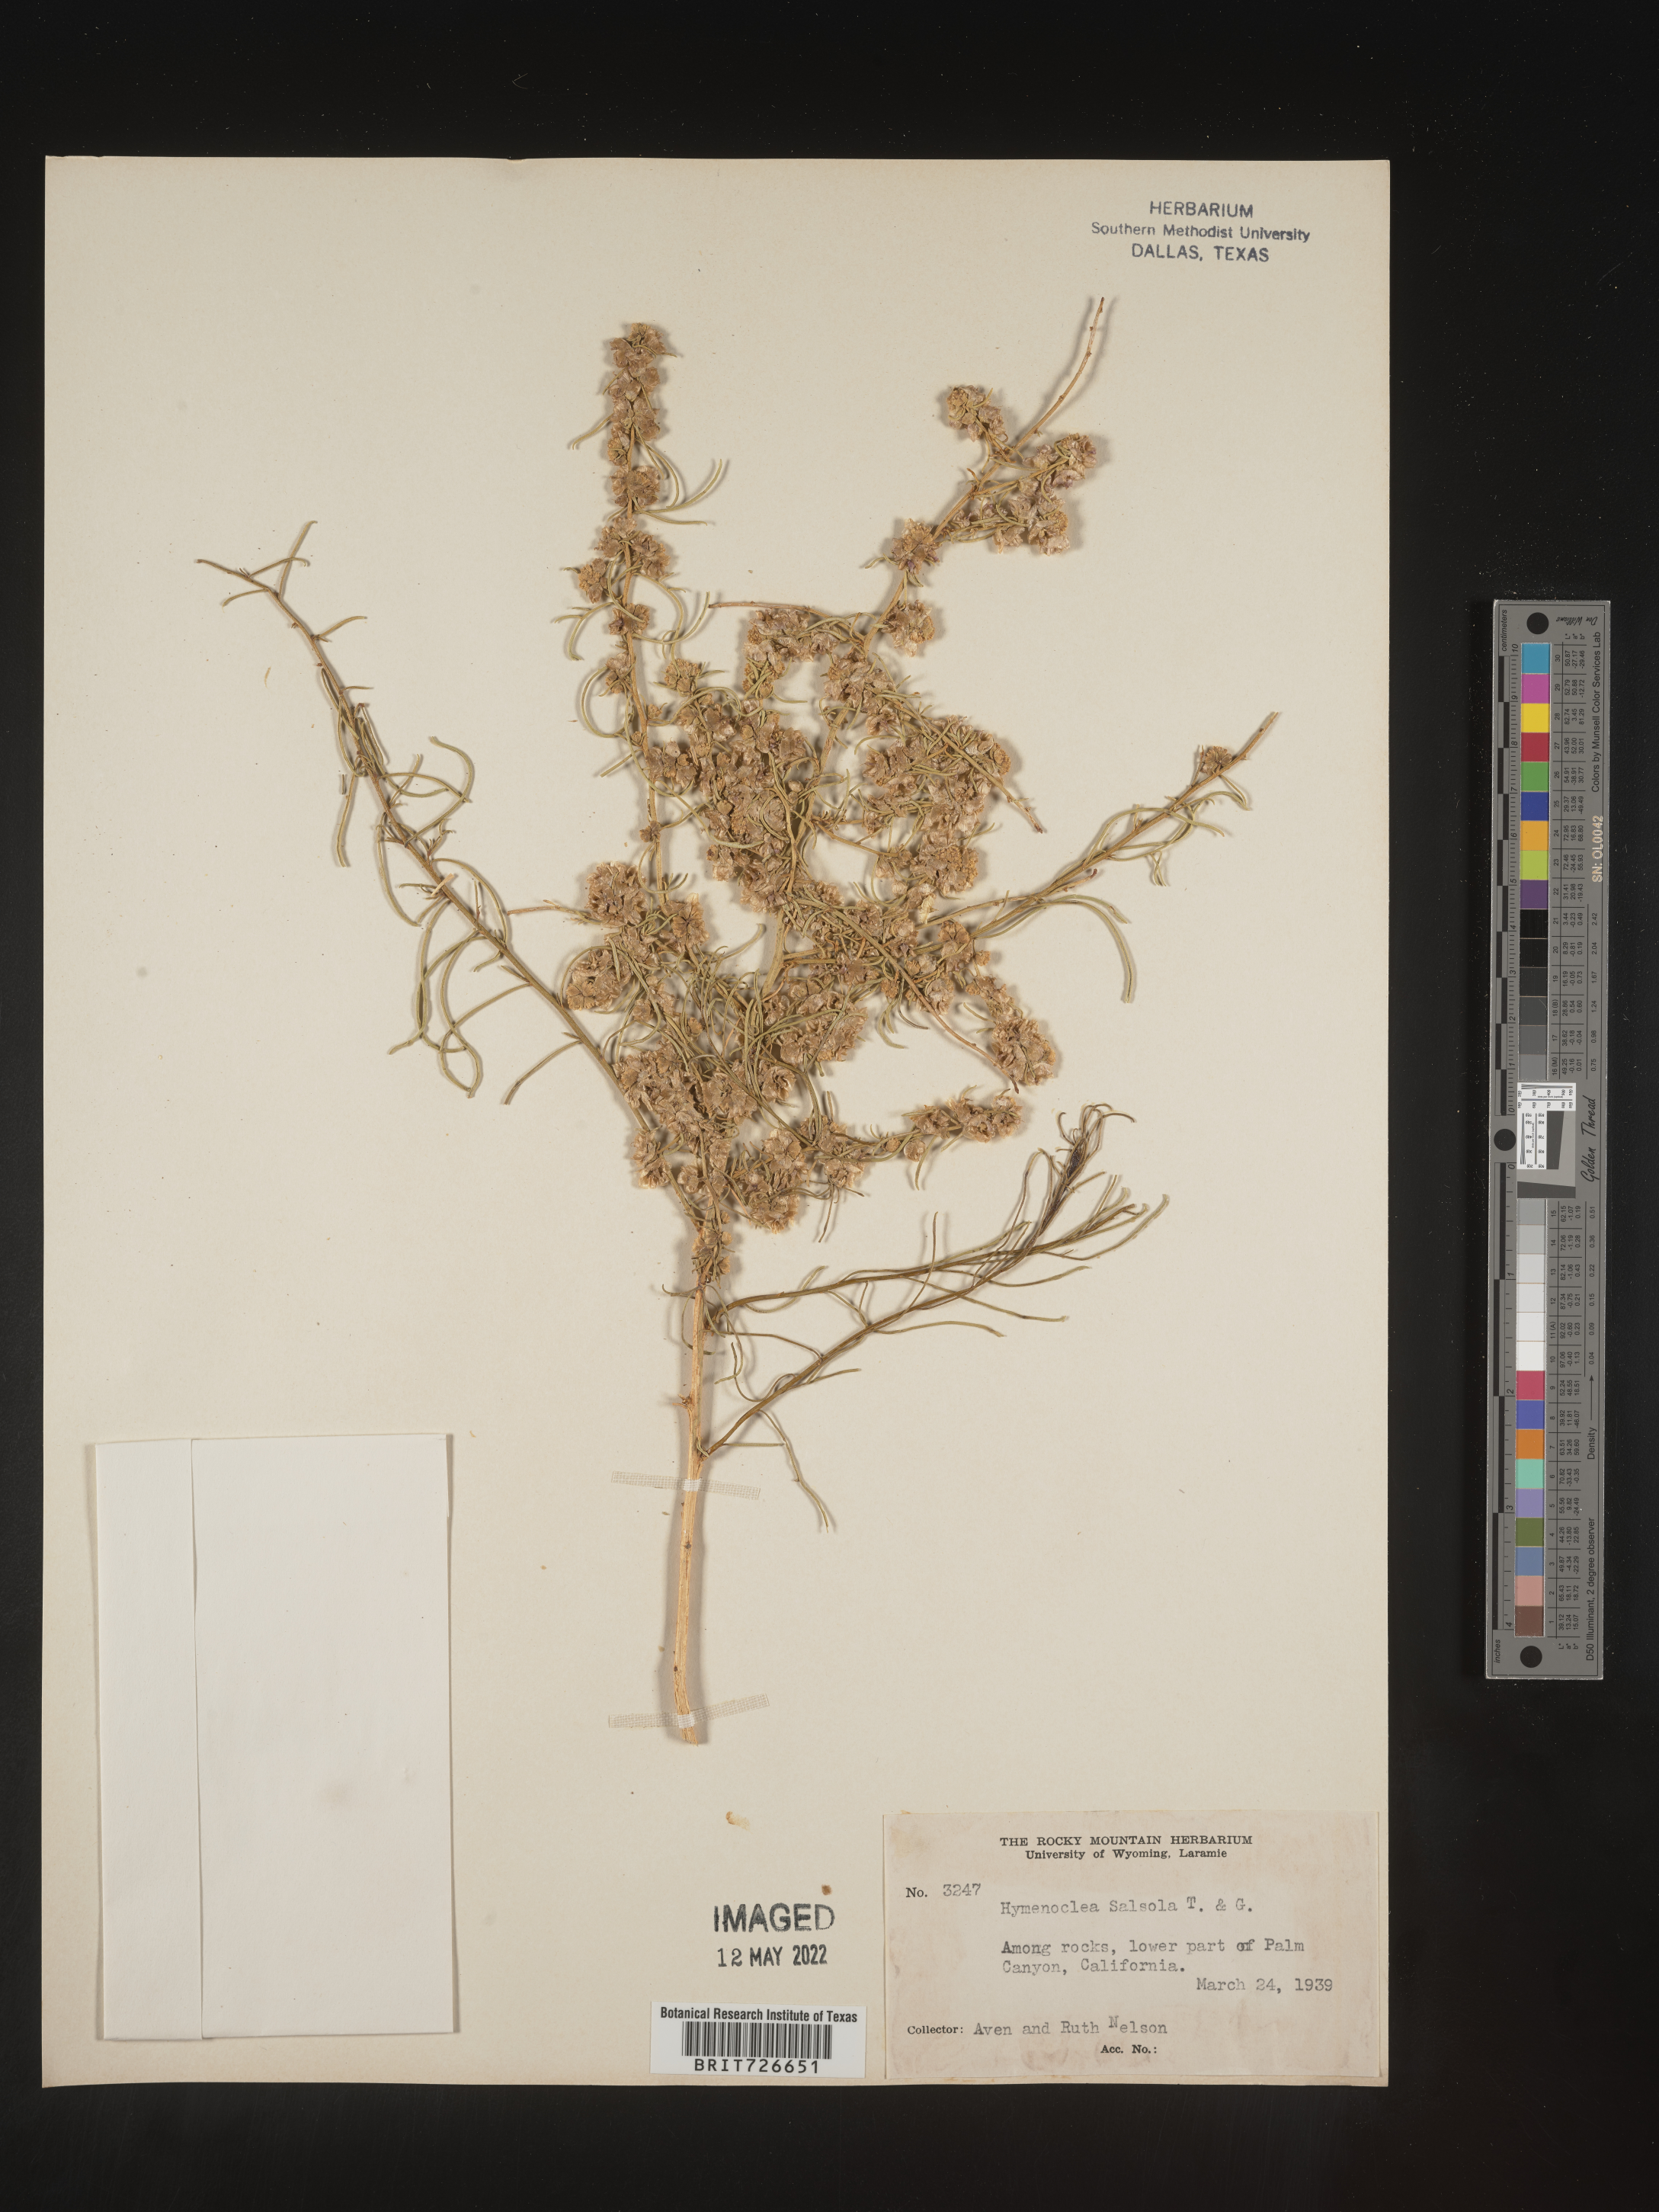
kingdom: Animalia
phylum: Arthropoda
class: Insecta
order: Lepidoptera
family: Sesiidae
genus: Hymenoclea
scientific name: Hymenoclea
